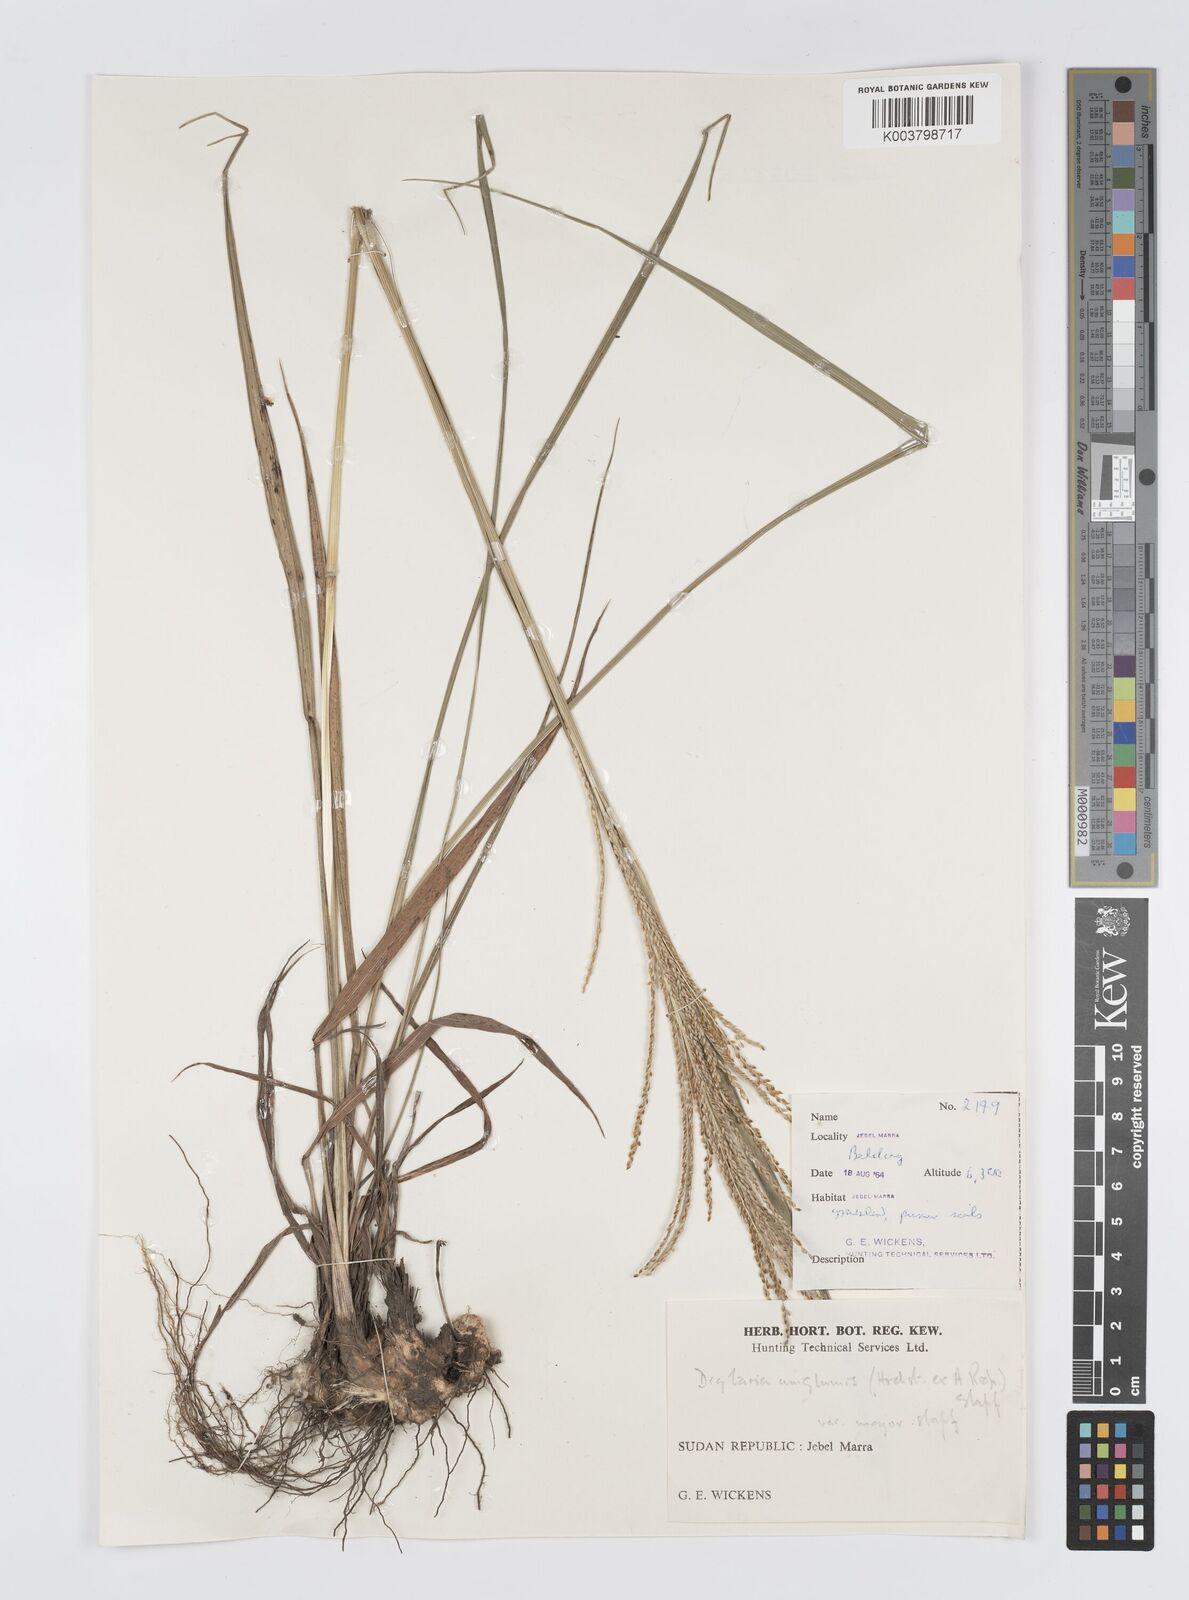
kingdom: Plantae
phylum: Tracheophyta
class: Liliopsida
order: Poales
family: Poaceae
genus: Digitaria
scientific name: Digitaria diagonalis
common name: Brown-seed finger grass
